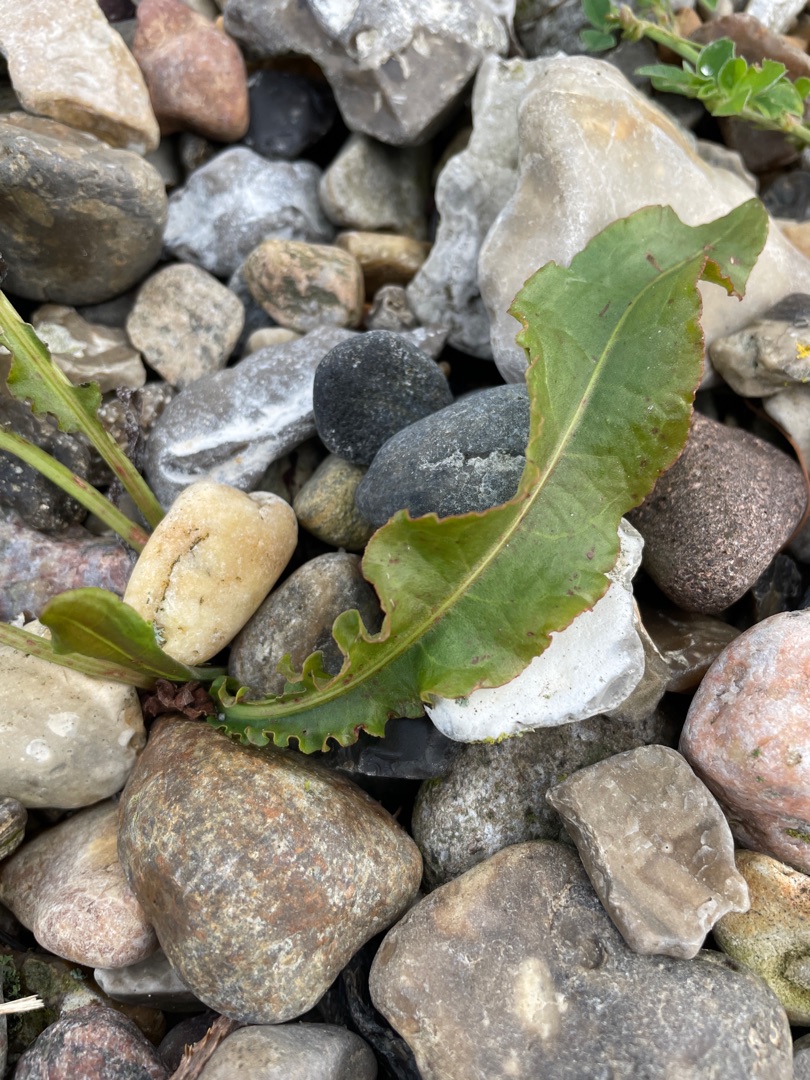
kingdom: Plantae
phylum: Tracheophyta
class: Magnoliopsida
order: Caryophyllales
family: Polygonaceae
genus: Rumex
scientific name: Rumex crispus
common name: Kruset skræppe
